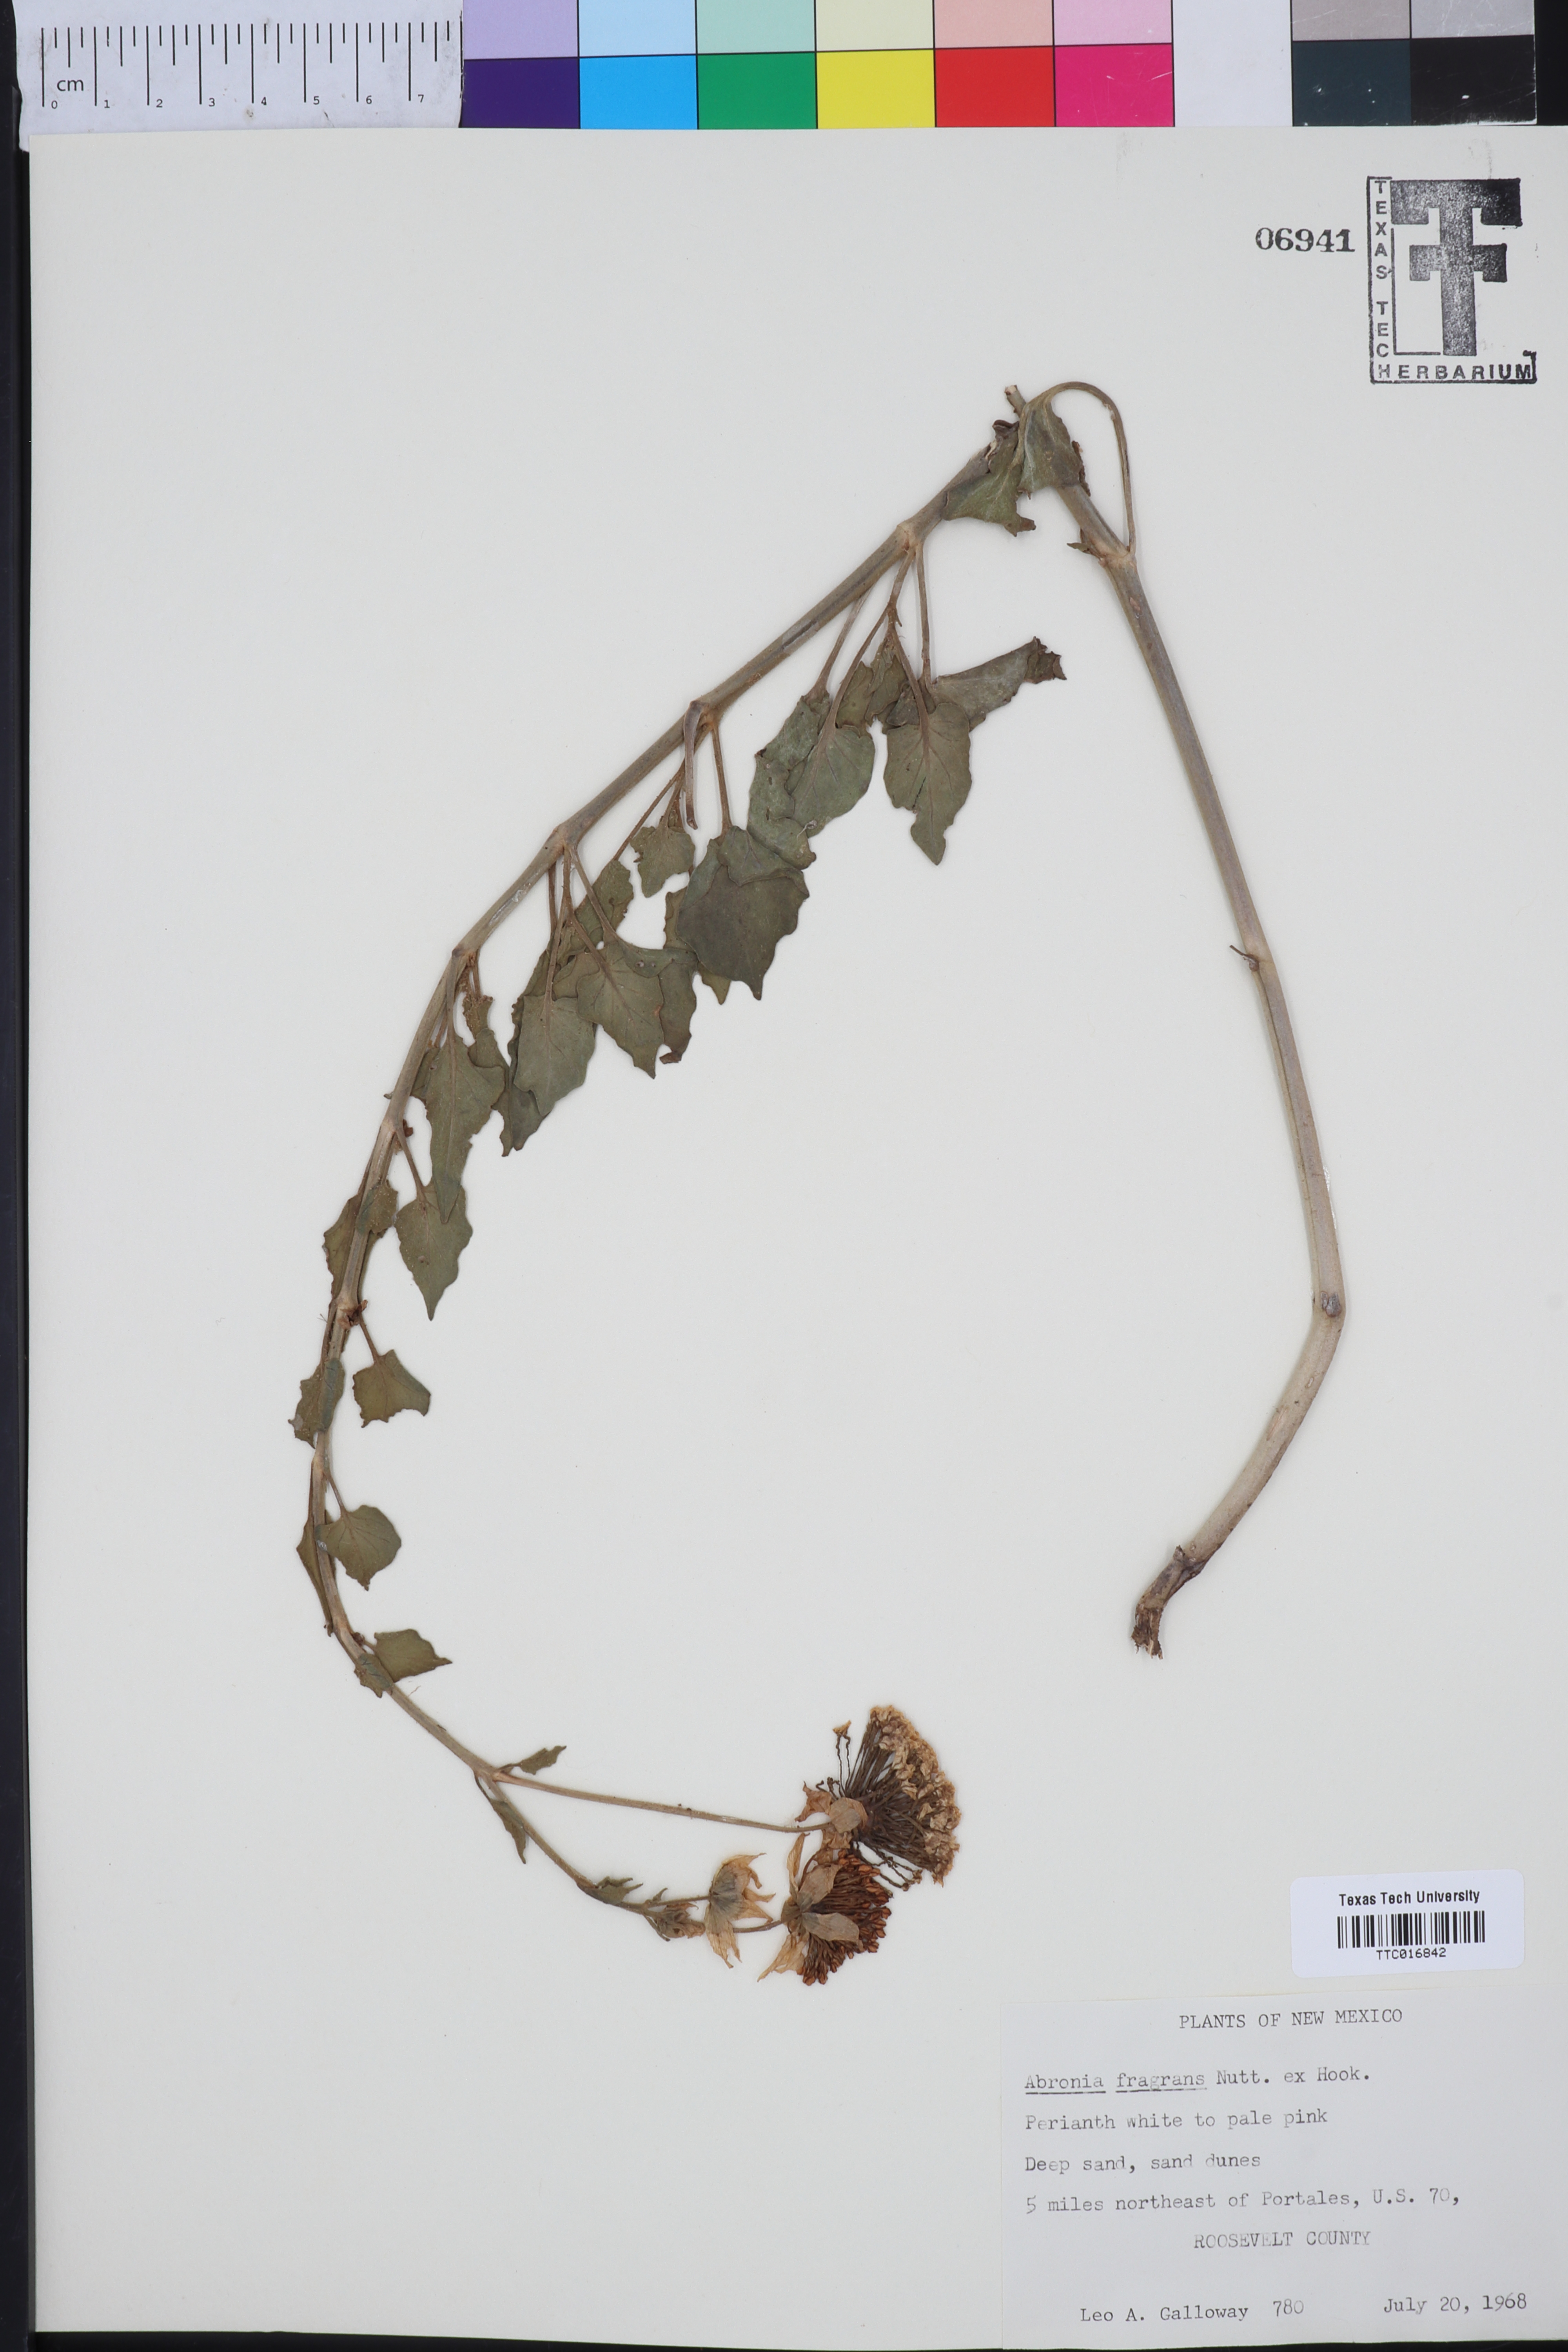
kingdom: Plantae
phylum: Tracheophyta
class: Magnoliopsida
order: Caryophyllales
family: Nyctaginaceae
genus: Abronia
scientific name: Abronia fragrans
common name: Fragrant sand-verbena
